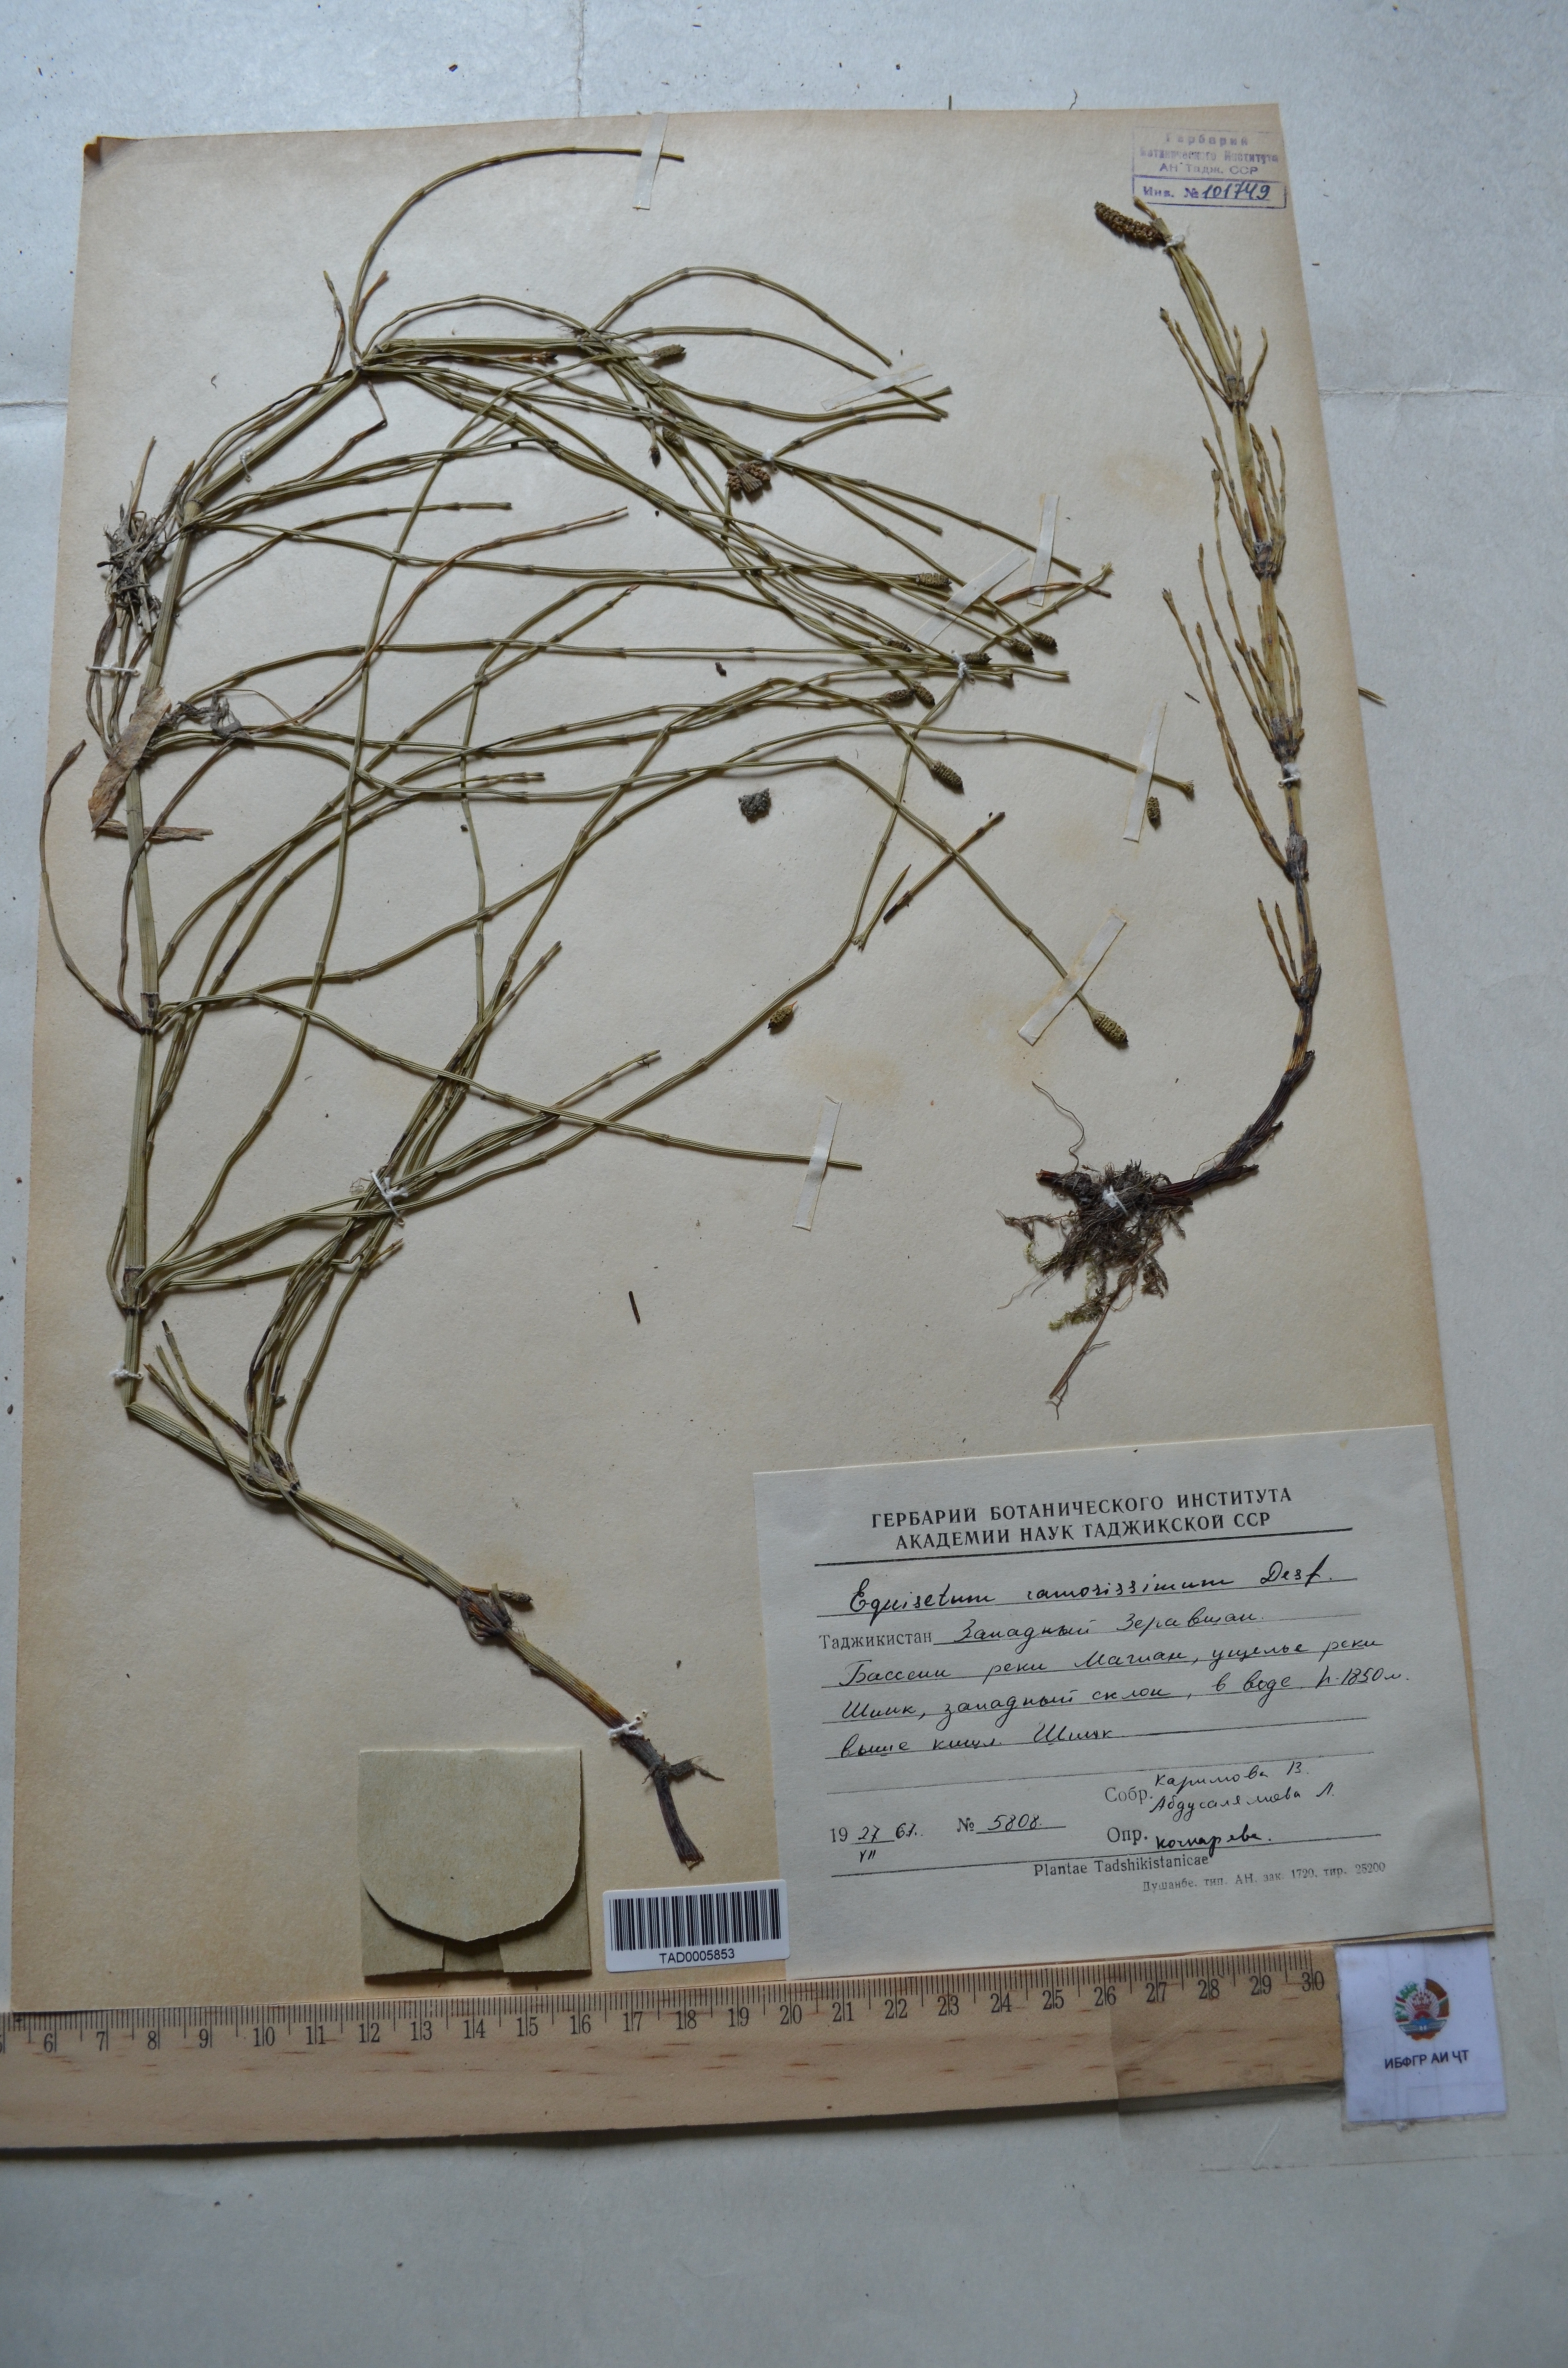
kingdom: Plantae
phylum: Tracheophyta
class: Polypodiopsida
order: Equisetales
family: Equisetaceae
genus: Equisetum
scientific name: Equisetum ramosissimum
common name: Branched horsetail
